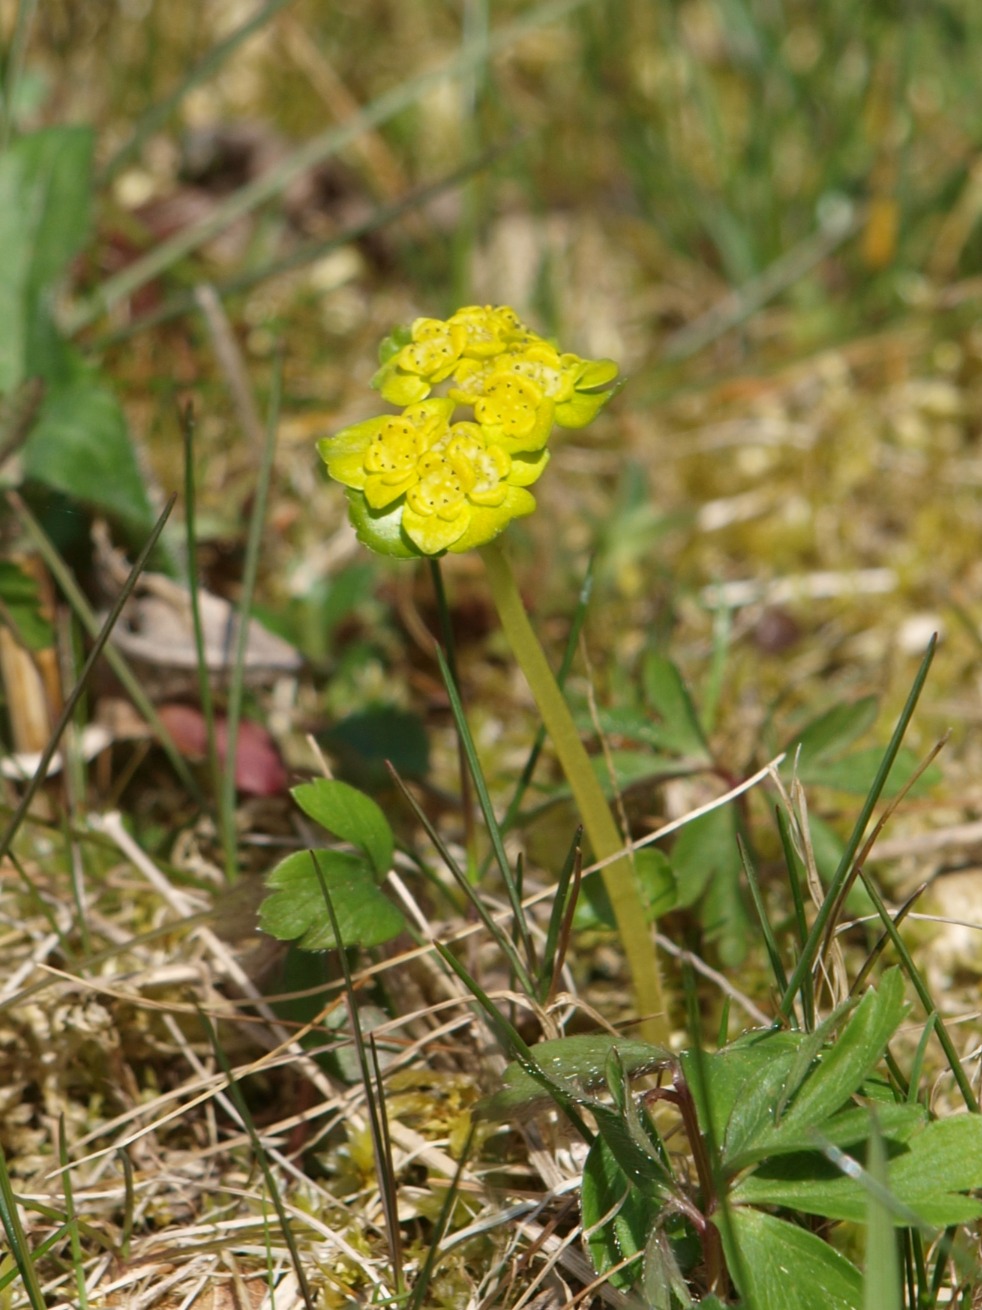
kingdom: Plantae
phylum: Tracheophyta
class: Magnoliopsida
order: Saxifragales
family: Saxifragaceae
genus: Chrysosplenium
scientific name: Chrysosplenium alternifolium
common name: Almindelig milturt
